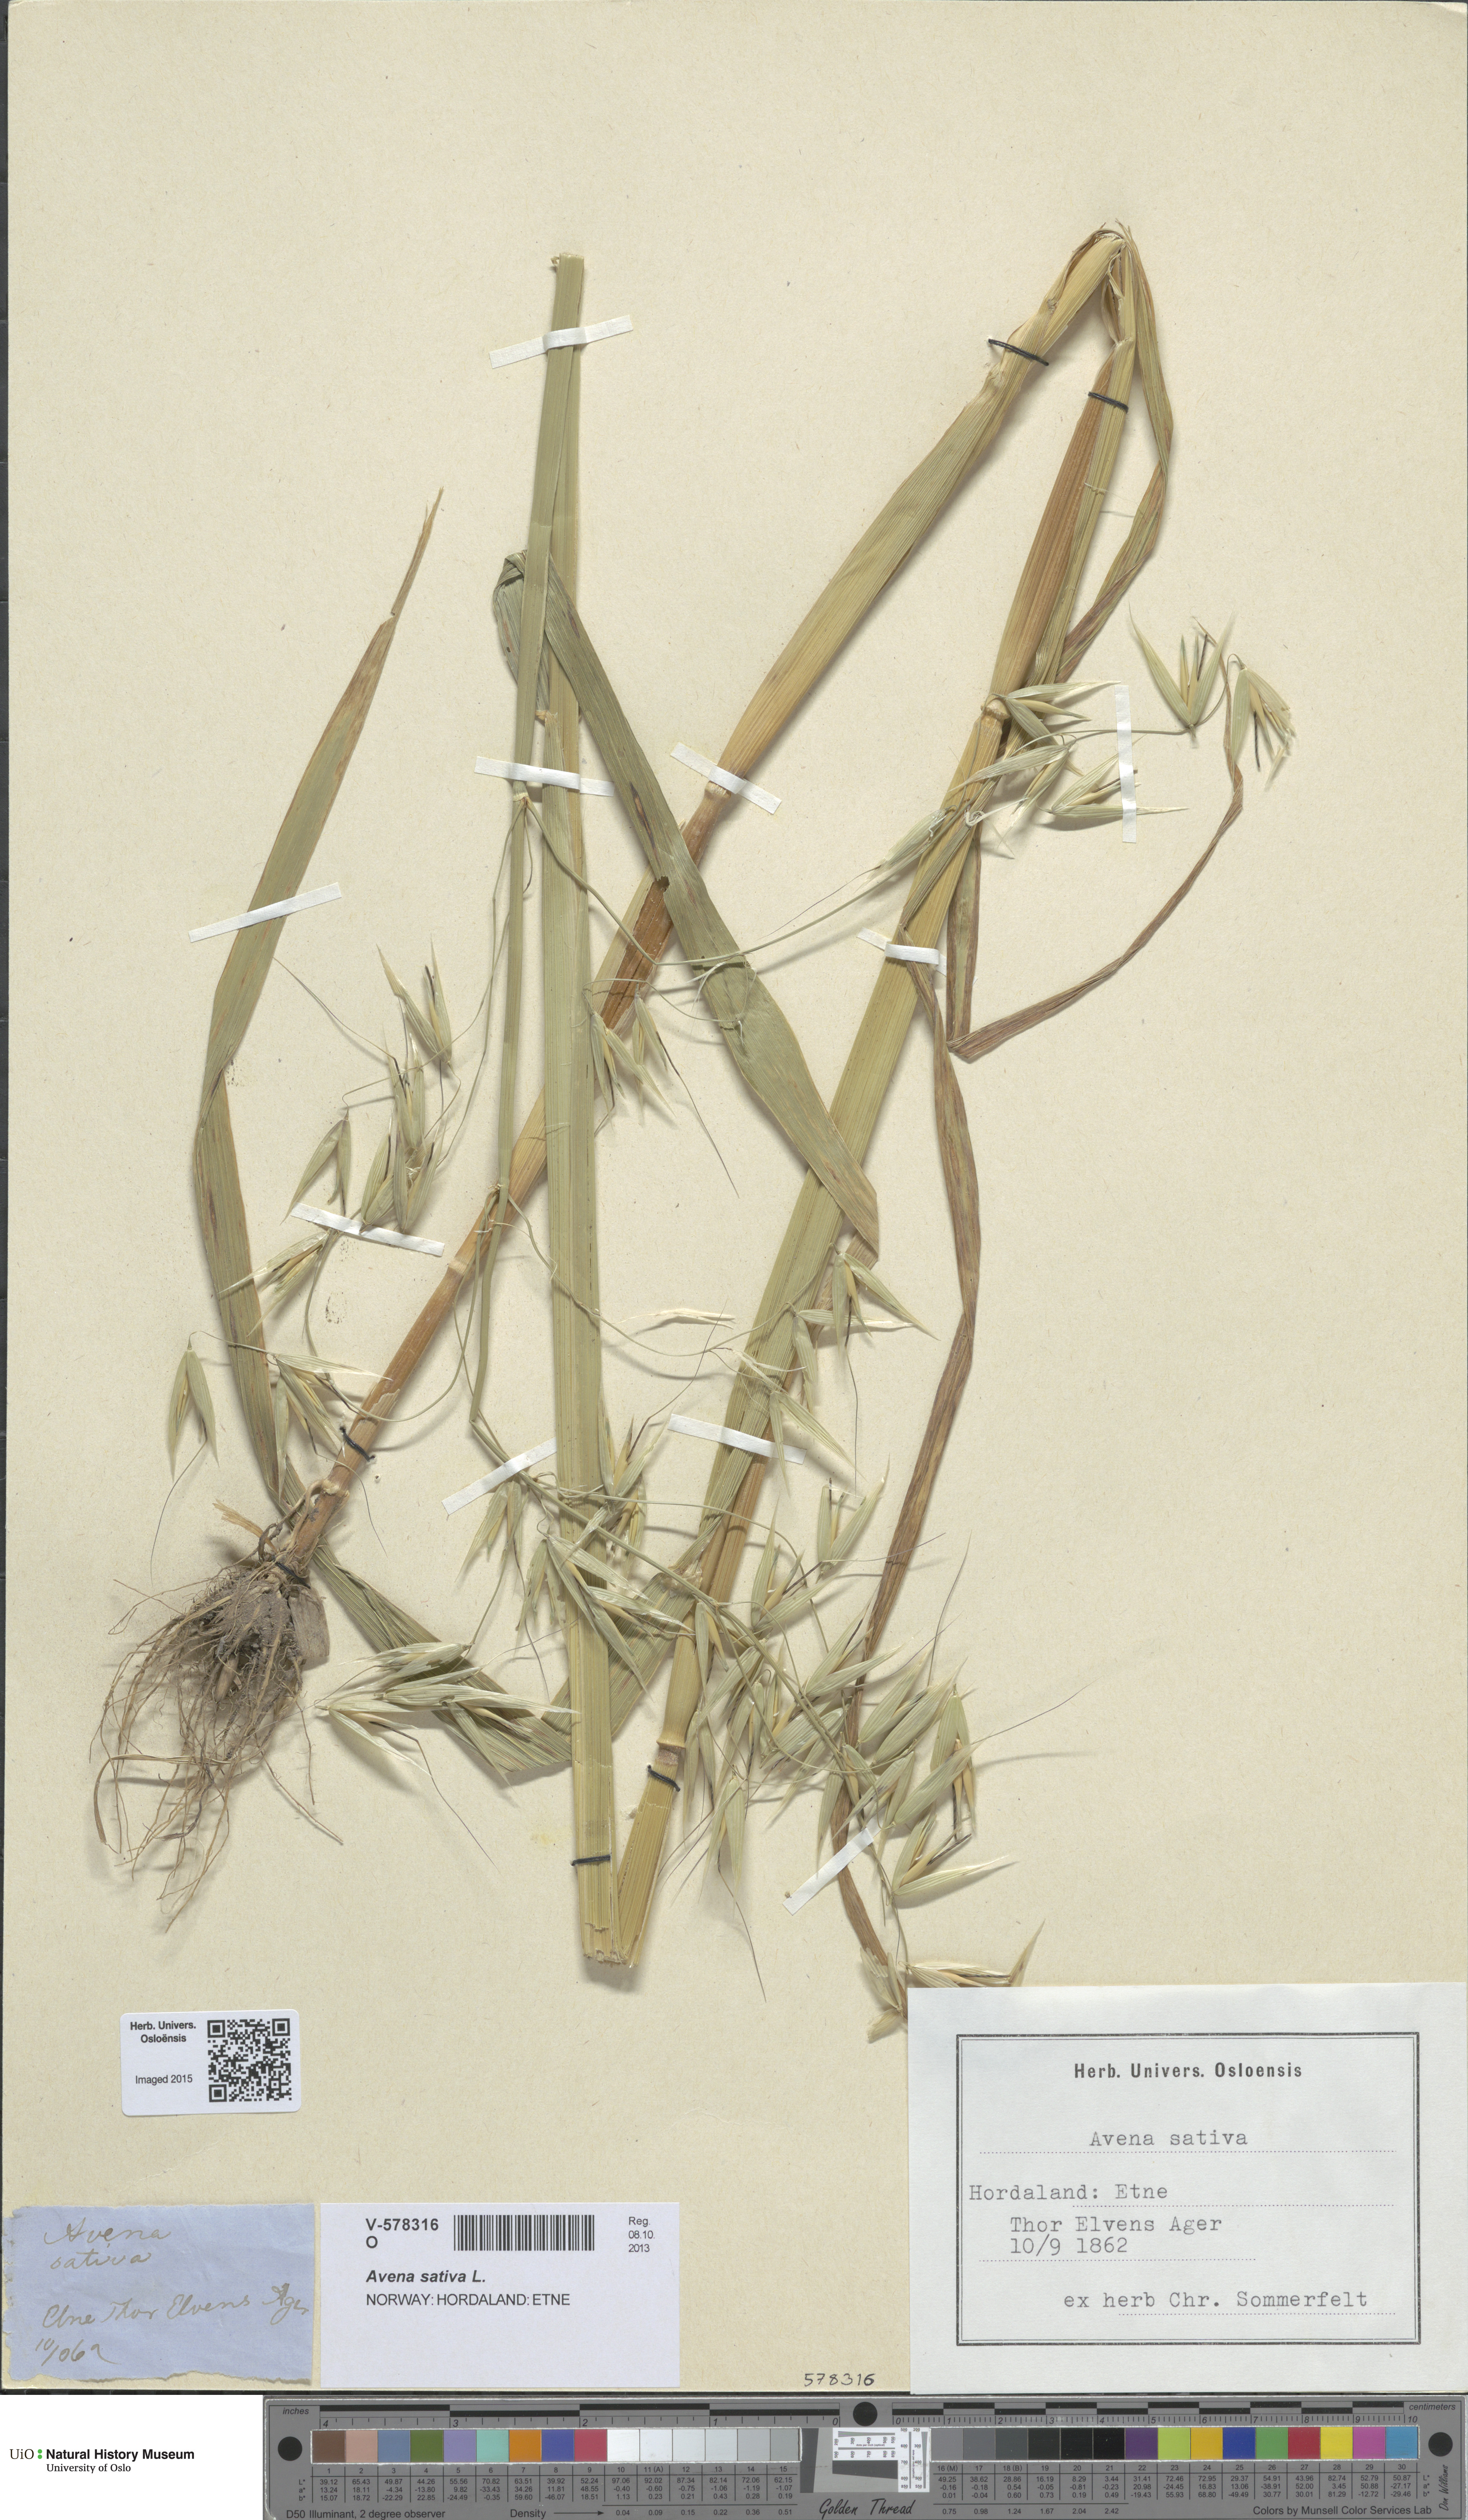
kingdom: Plantae
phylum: Tracheophyta
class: Liliopsida
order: Poales
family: Poaceae
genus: Avena
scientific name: Avena sativa
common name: Oat
